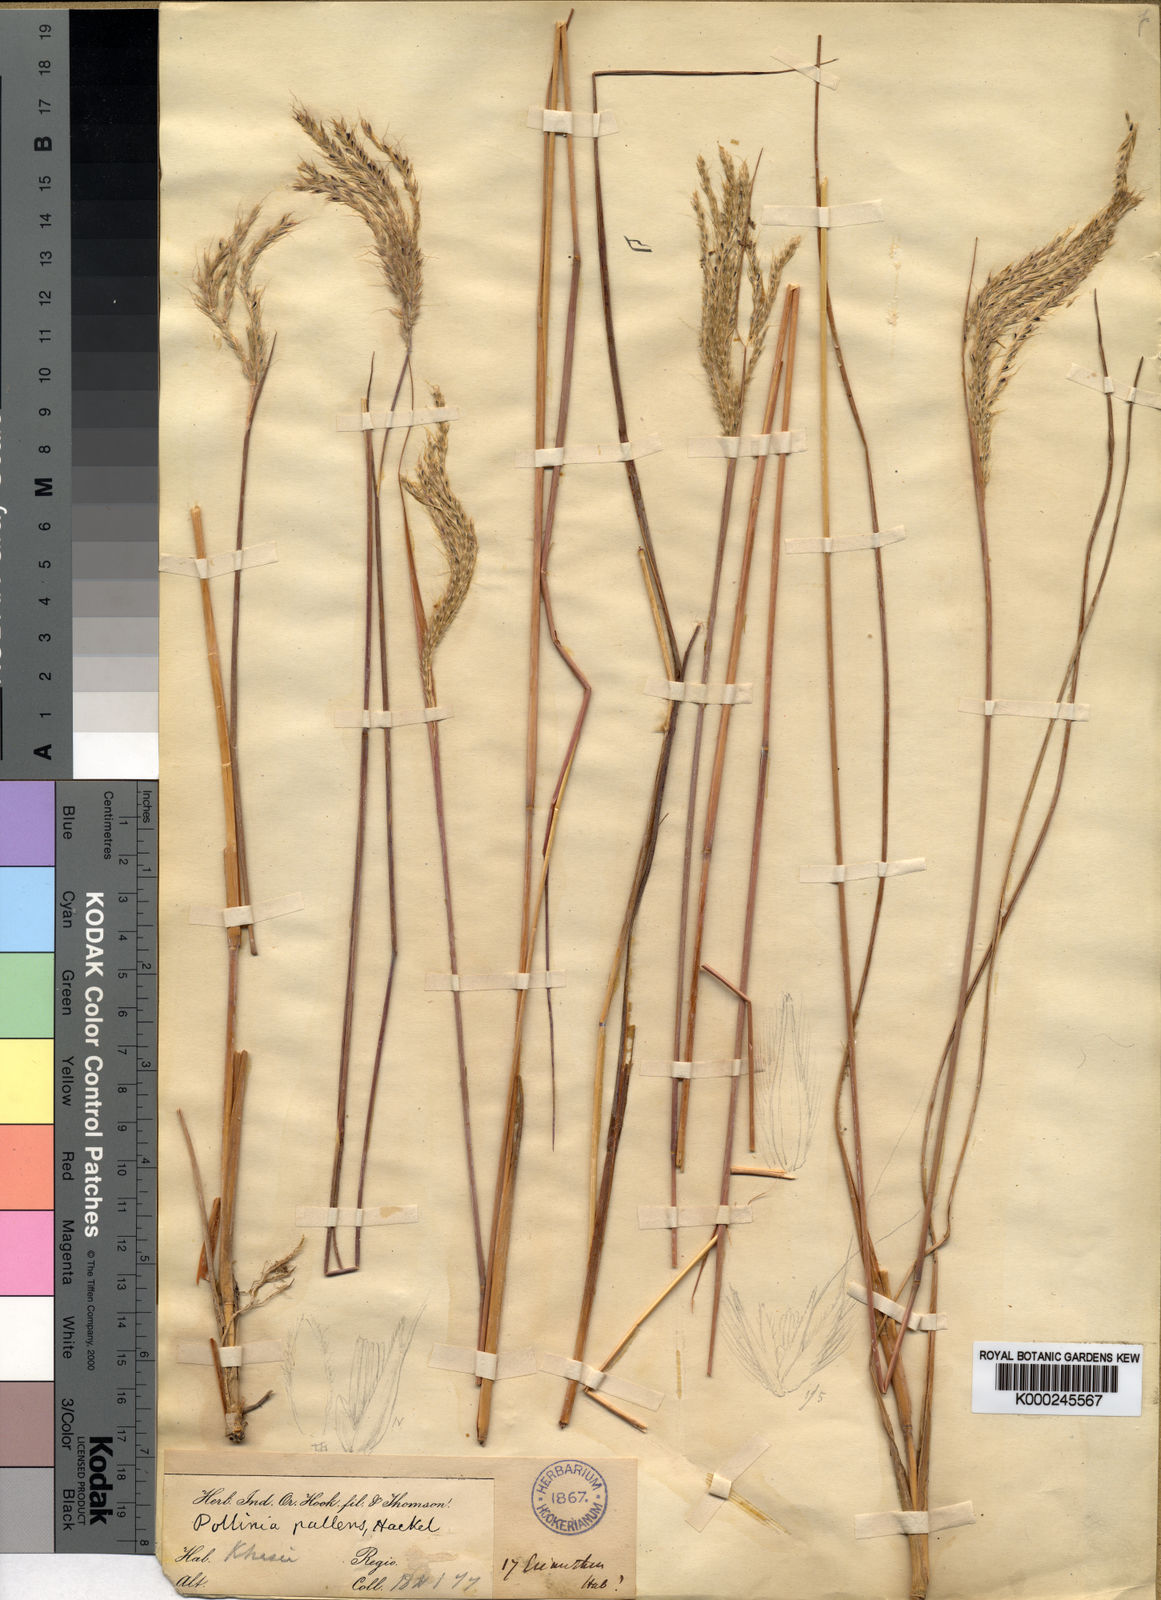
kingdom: Plantae
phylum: Tracheophyta
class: Liliopsida
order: Poales
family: Poaceae
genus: Eulalia
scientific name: Eulalia pallens
